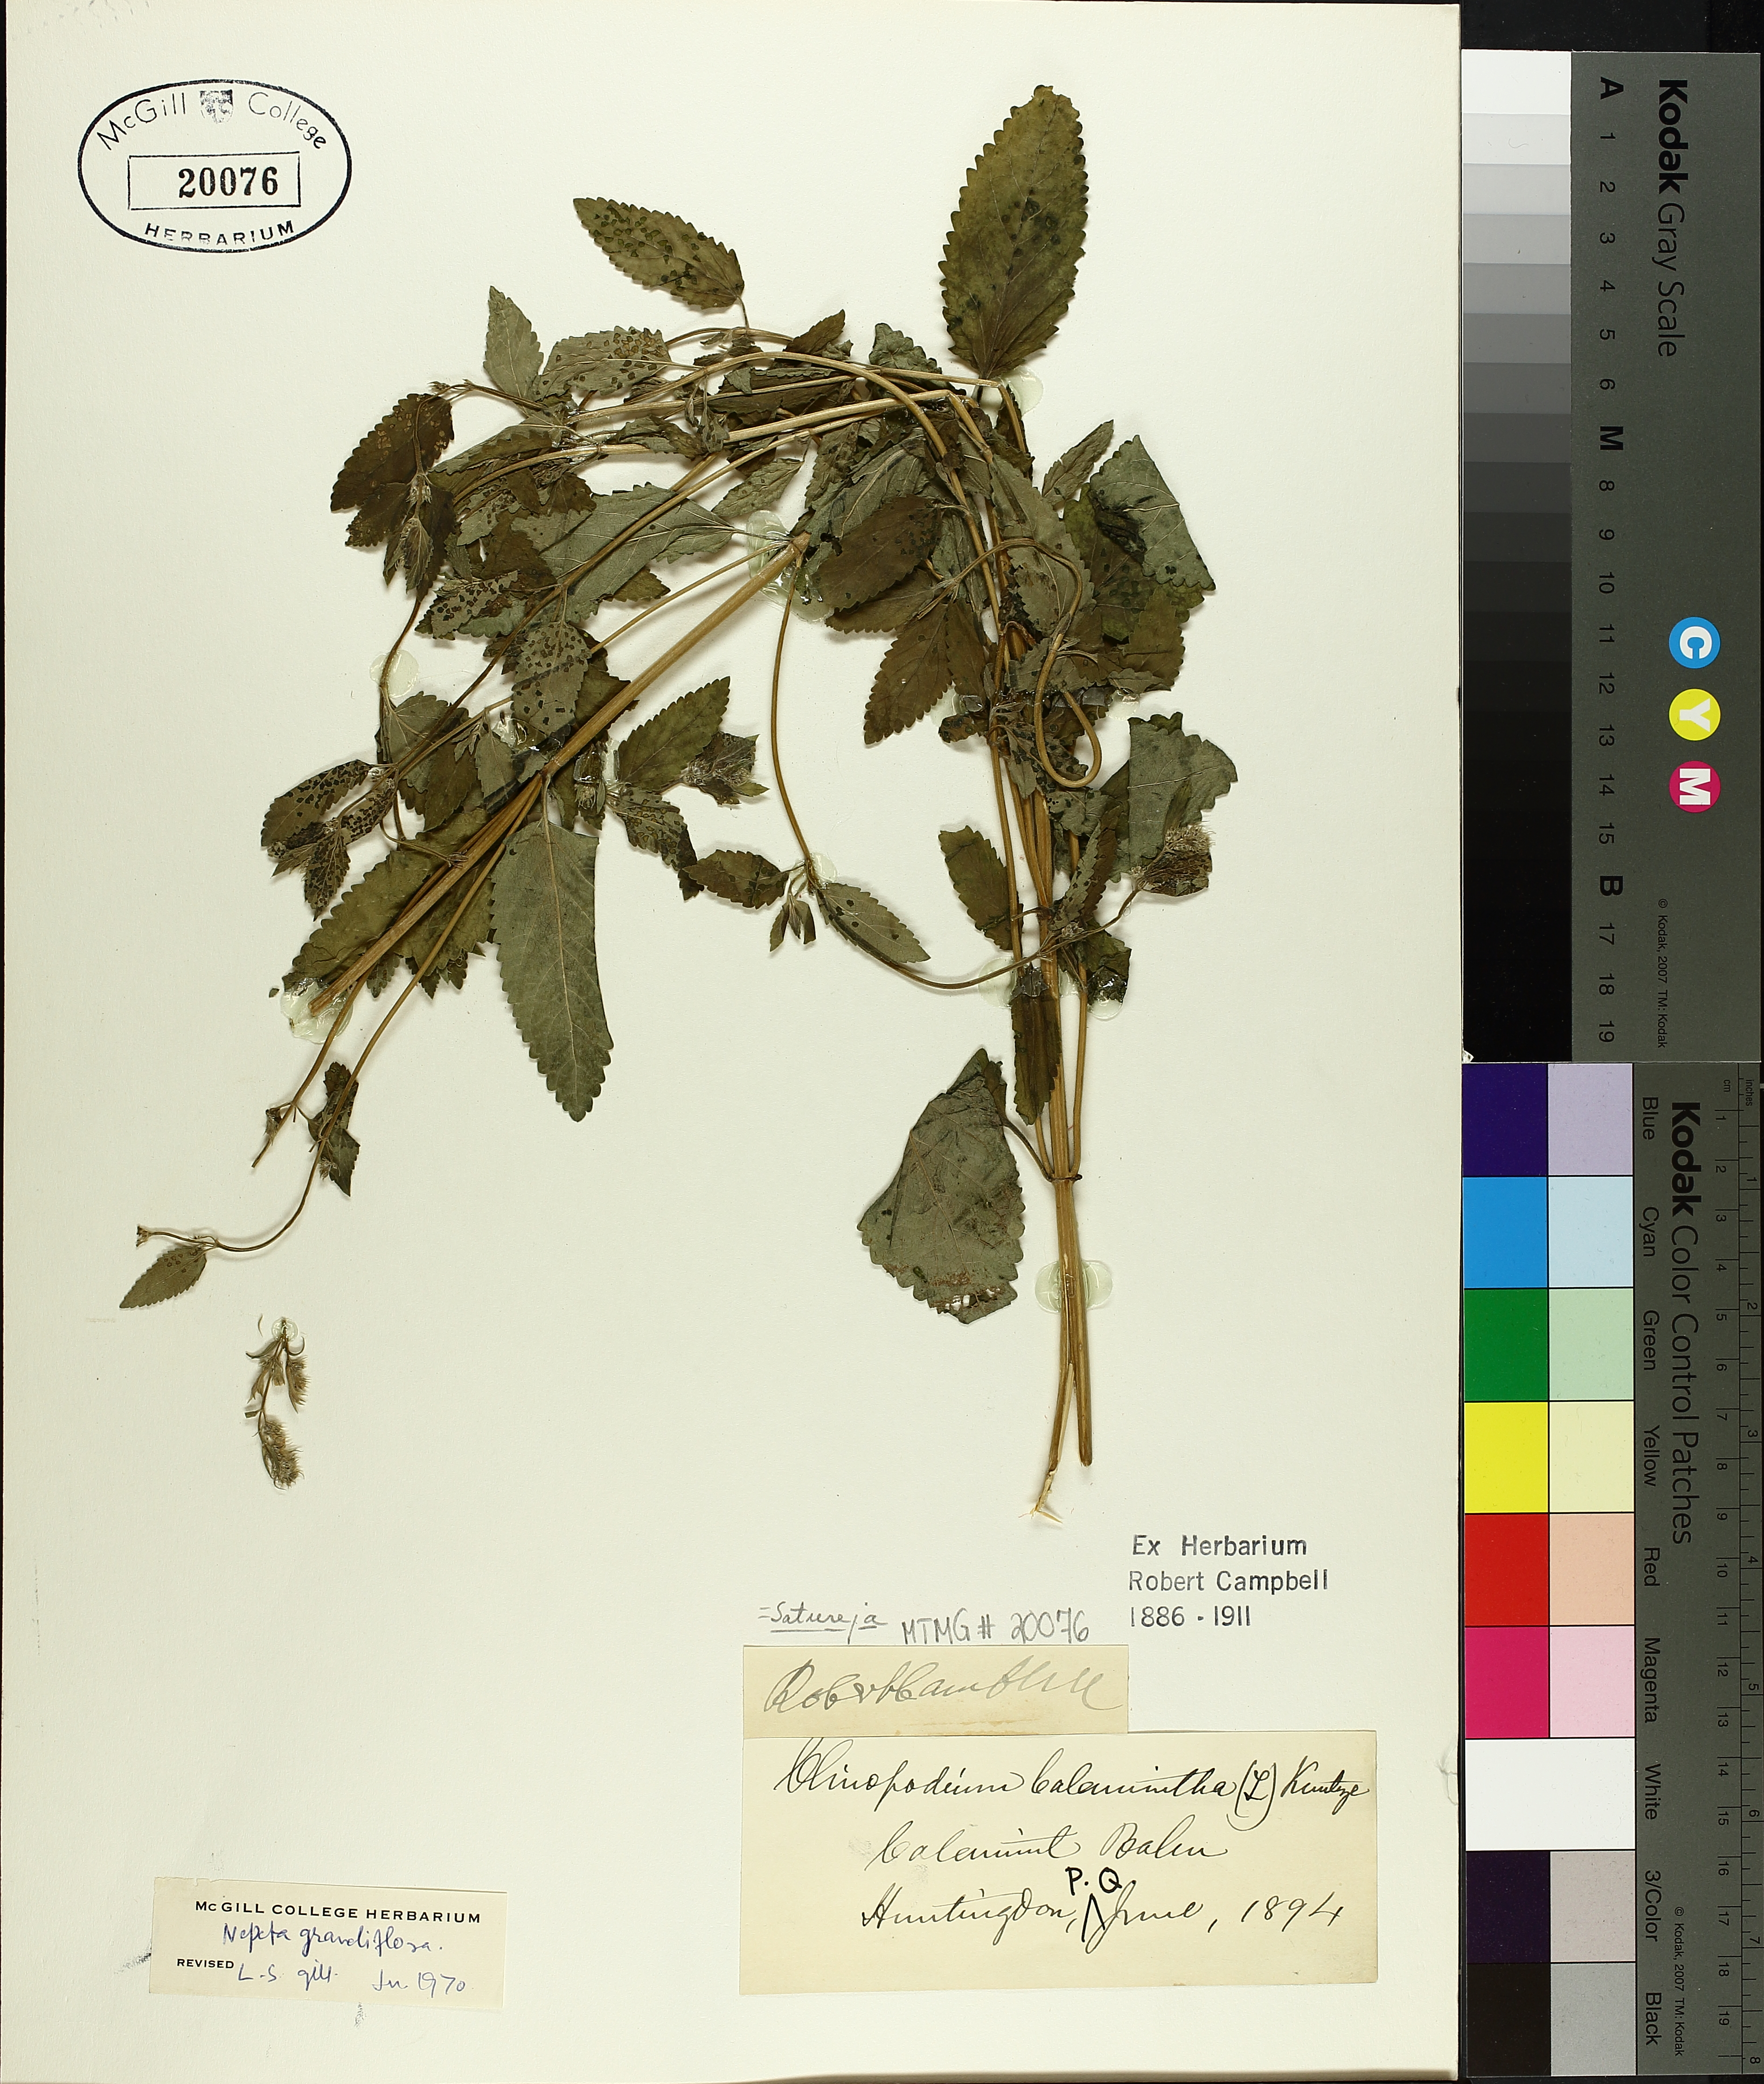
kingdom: Plantae
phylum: Tracheophyta
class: Magnoliopsida
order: Lamiales
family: Lamiaceae
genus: Nepeta
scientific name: Nepeta grandiflora
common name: Caucasus catmint
